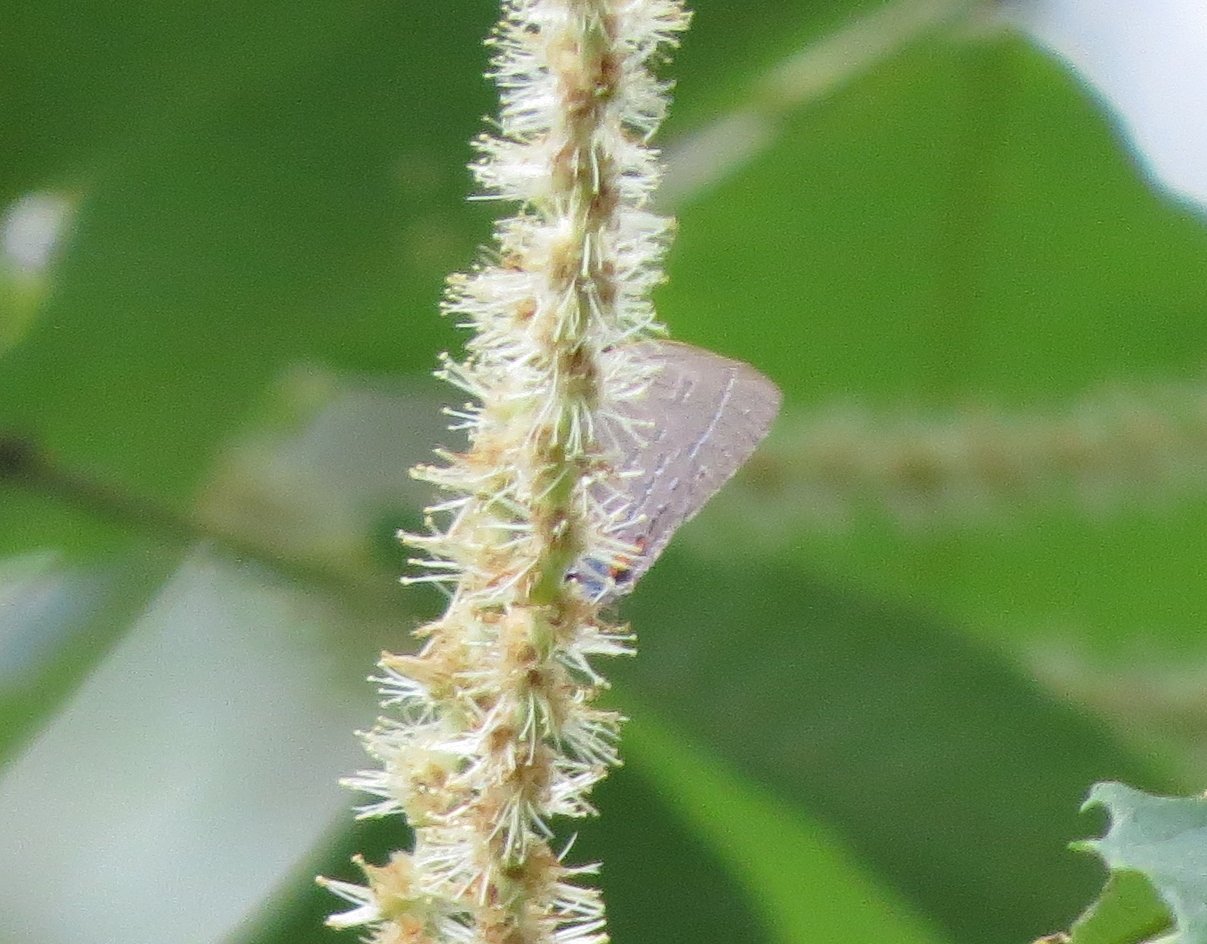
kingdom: Animalia
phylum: Arthropoda
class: Insecta
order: Lepidoptera
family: Lycaenidae
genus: Strymon
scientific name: Strymon kingi
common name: King's Hairstreak
